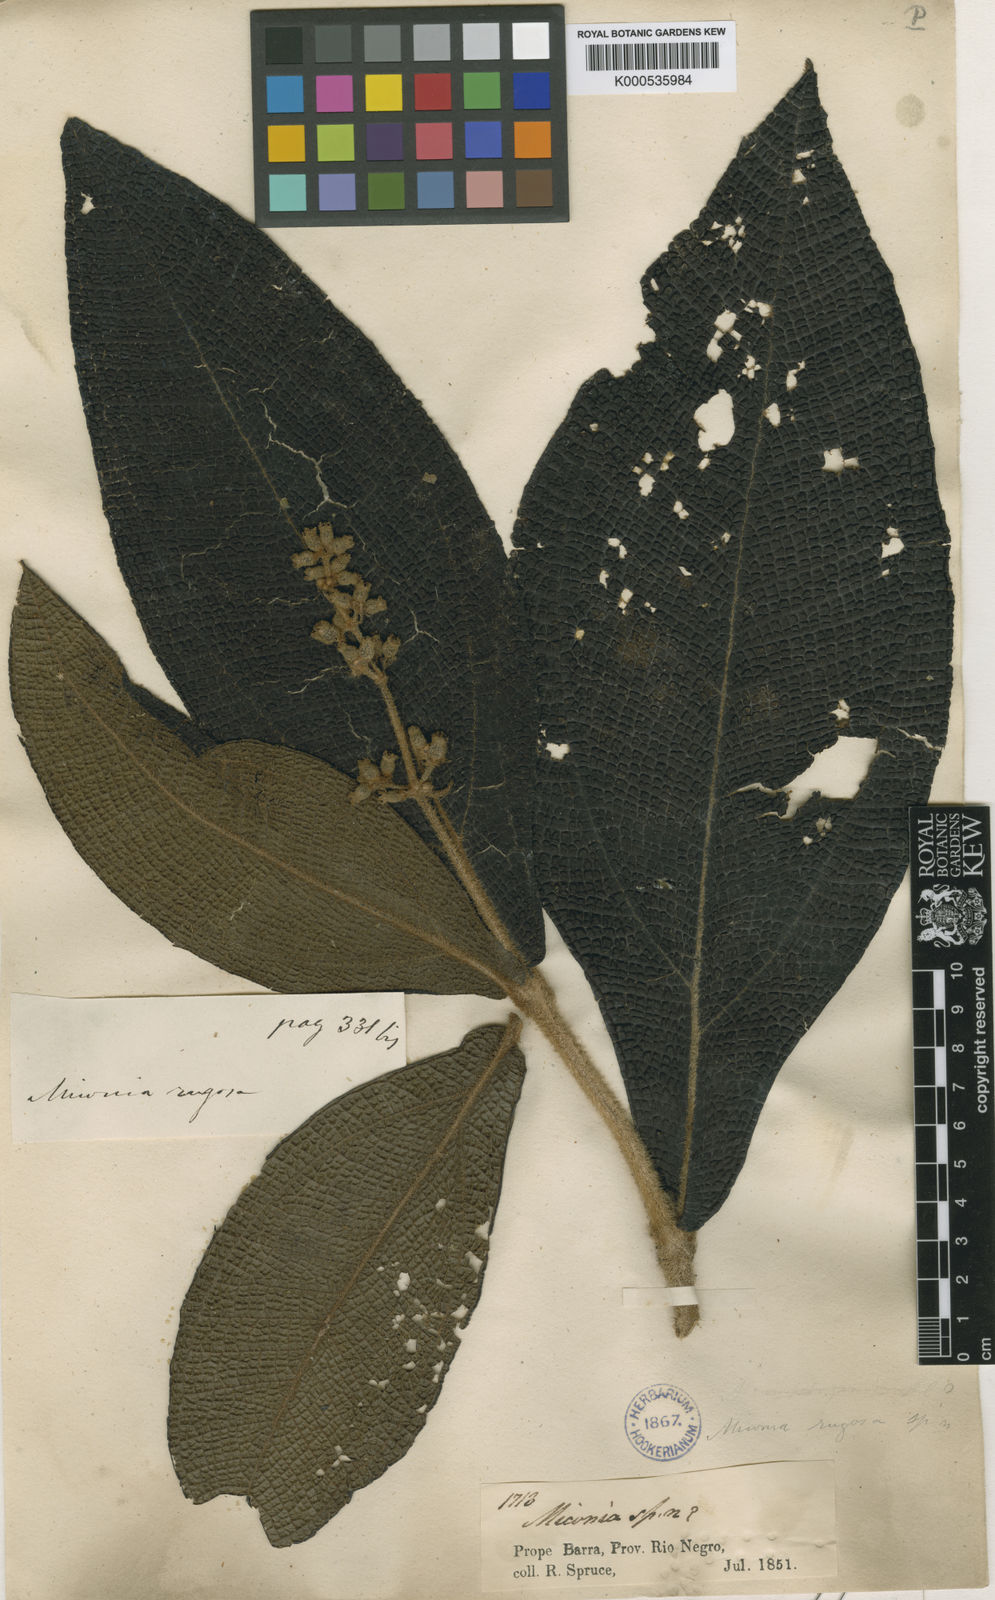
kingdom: Plantae
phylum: Tracheophyta
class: Magnoliopsida
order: Myrtales
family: Melastomataceae
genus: Miconia
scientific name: Miconia rugosa
